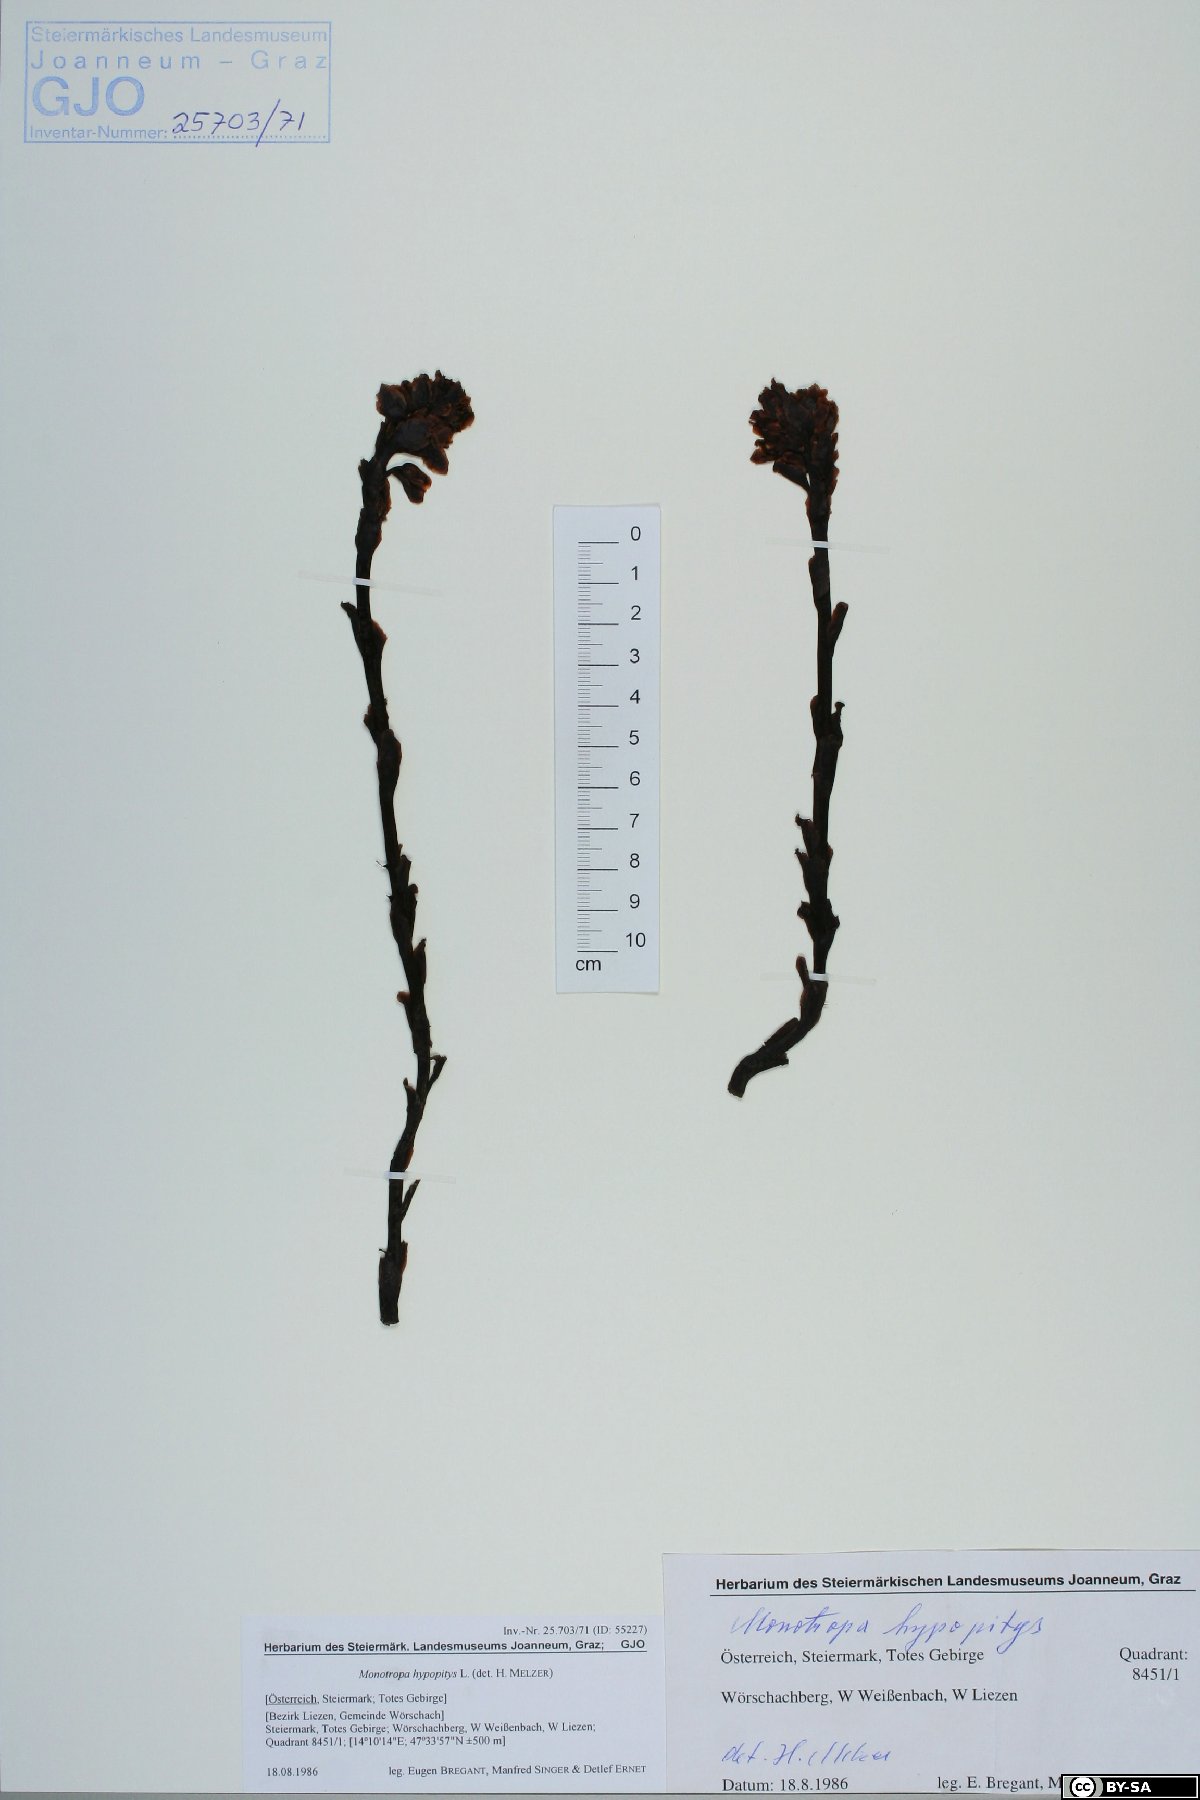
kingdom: Plantae
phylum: Tracheophyta
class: Magnoliopsida
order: Ericales
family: Ericaceae
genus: Hypopitys
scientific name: Hypopitys monotropa
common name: Yellow bird's-nest
